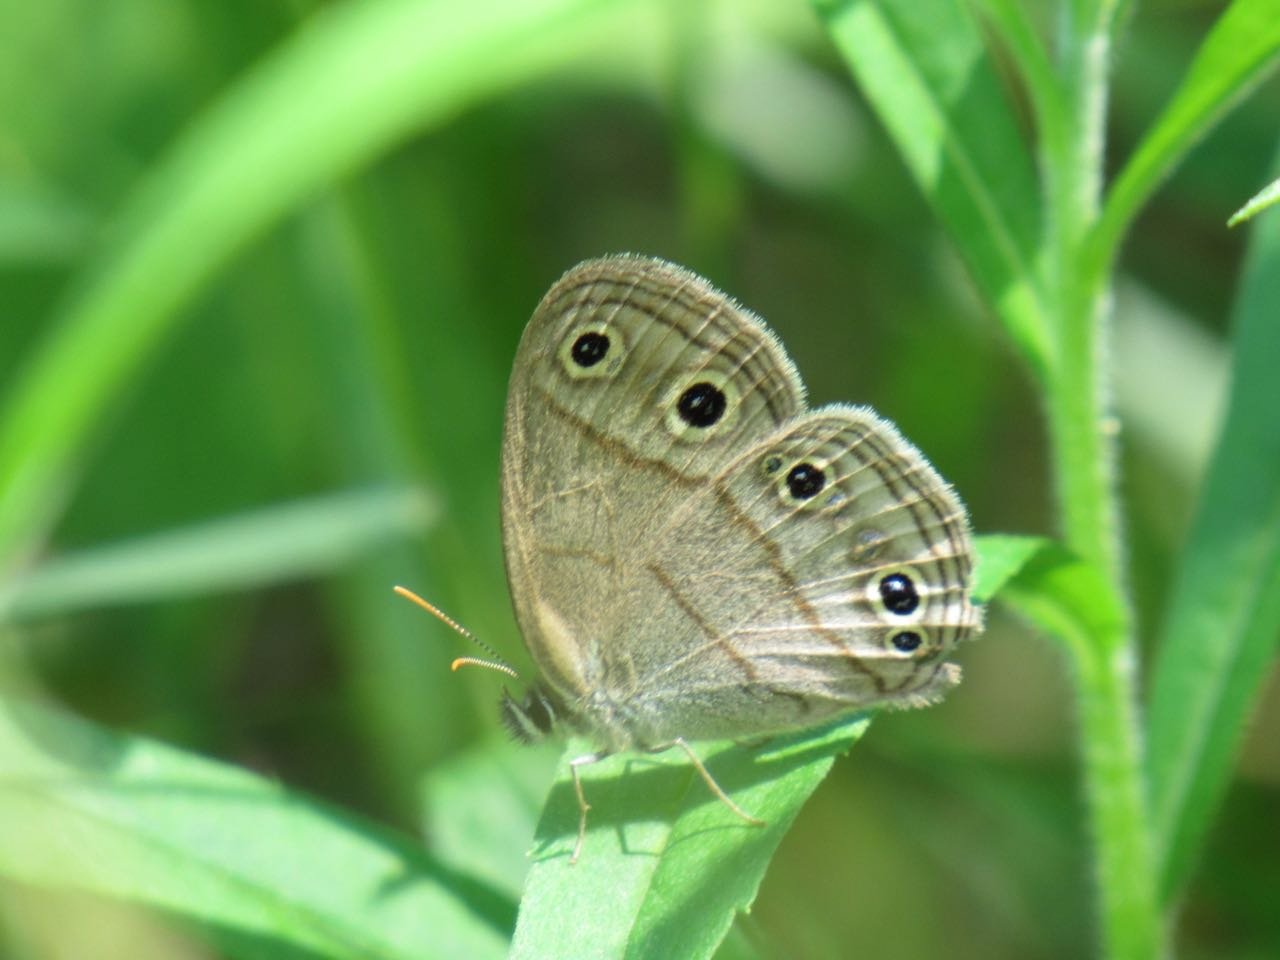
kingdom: Animalia
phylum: Arthropoda
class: Insecta
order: Lepidoptera
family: Nymphalidae
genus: Euptychia
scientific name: Euptychia cymela
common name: Little Wood Satyr
